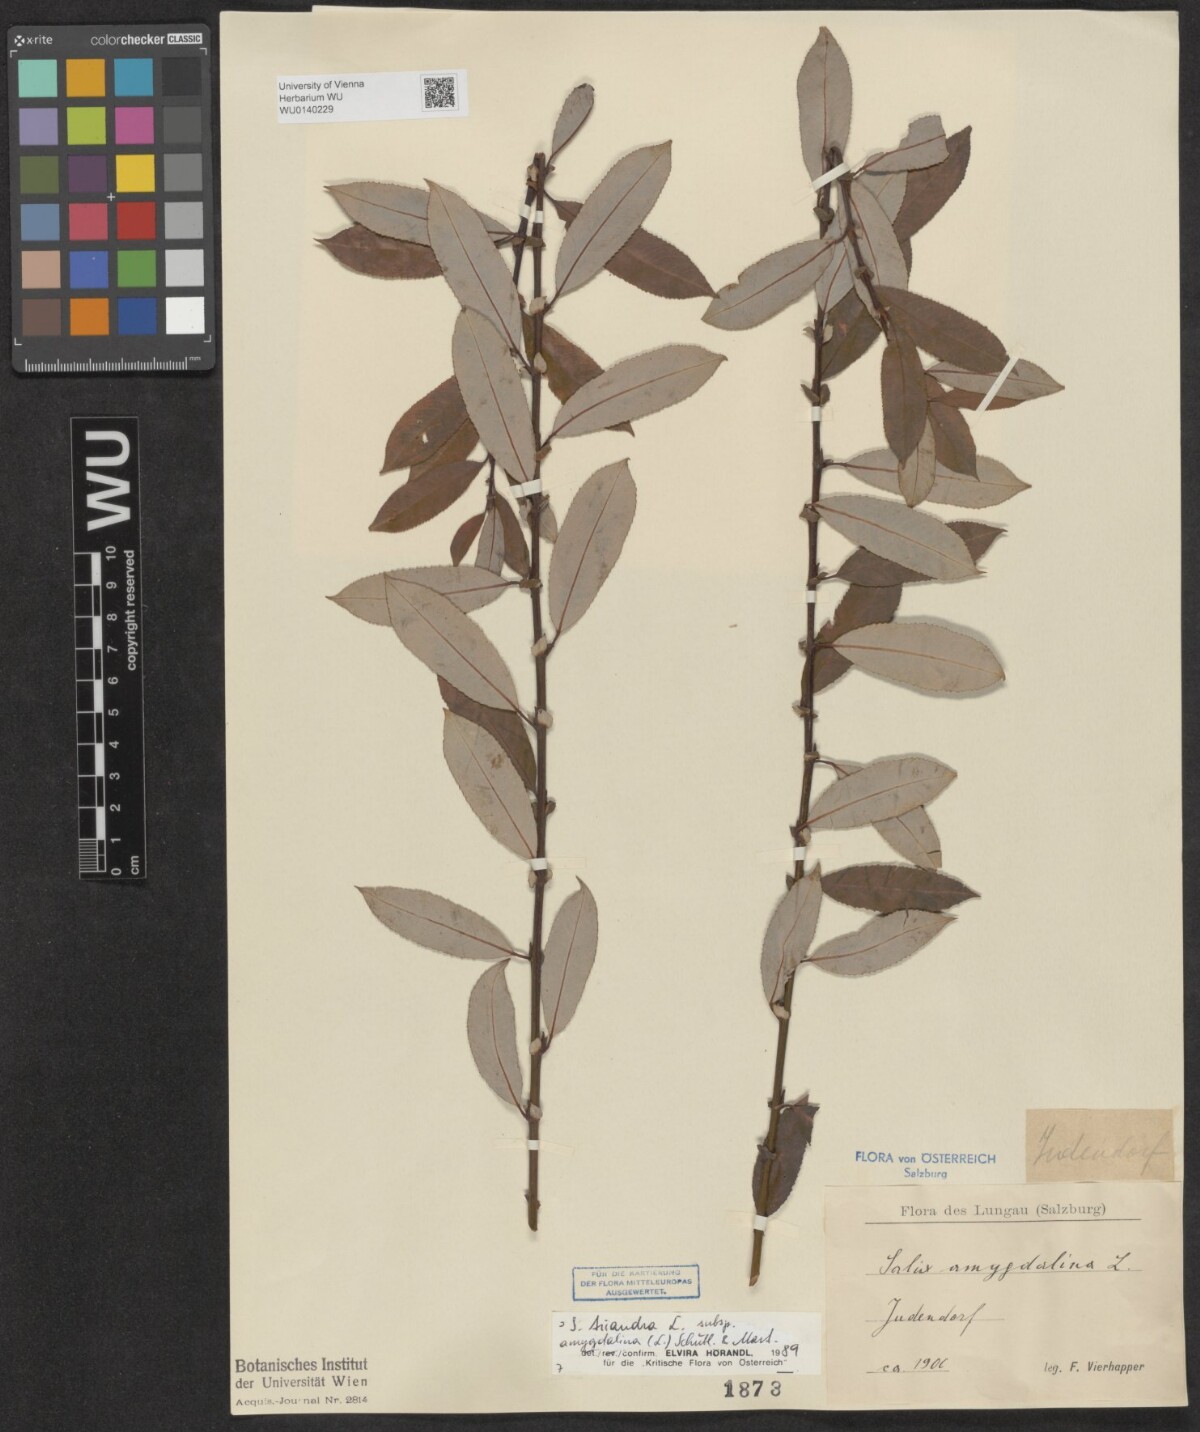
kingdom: Plantae
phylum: Tracheophyta
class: Magnoliopsida
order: Malpighiales
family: Salicaceae
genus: Salix
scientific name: Salix triandra
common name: Almond willow
